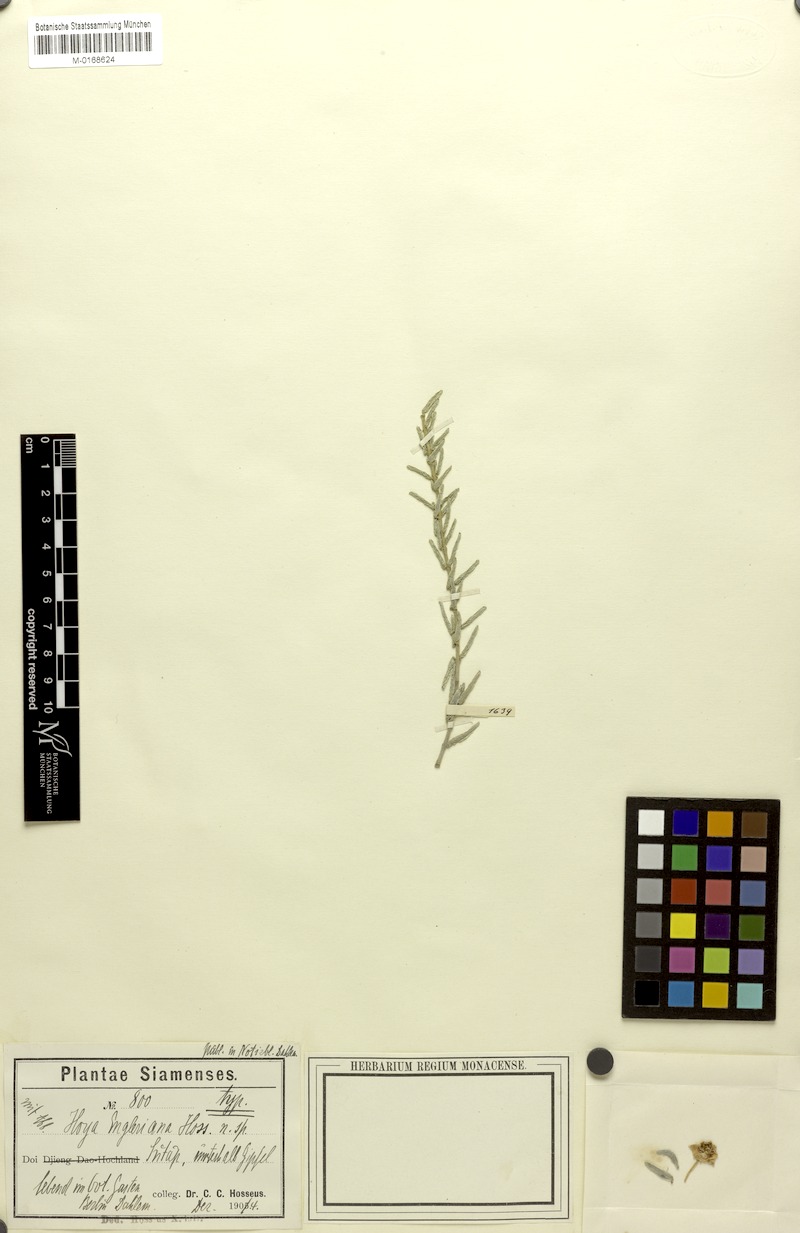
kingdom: Plantae
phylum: Tracheophyta
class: Magnoliopsida
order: Gentianales
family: Apocynaceae
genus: Hoya
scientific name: Hoya engleriana
